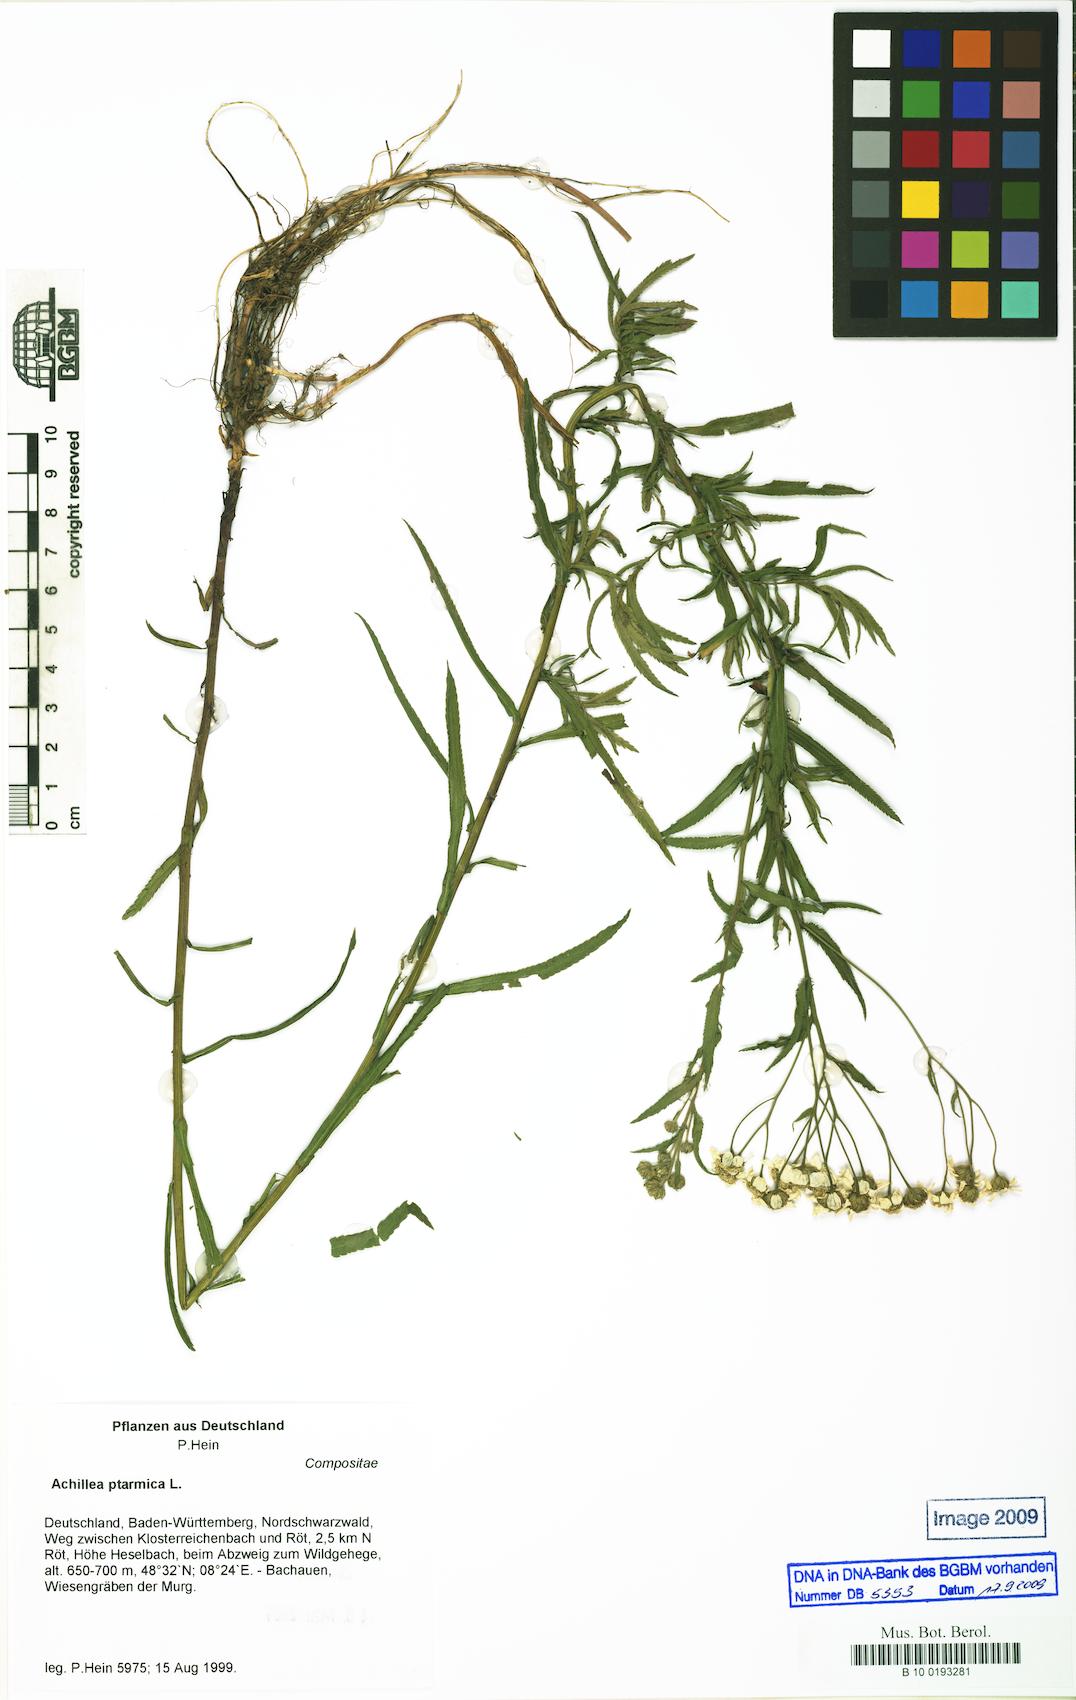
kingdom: Plantae
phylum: Tracheophyta
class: Magnoliopsida
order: Asterales
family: Asteraceae
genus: Achillea
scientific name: Achillea ptarmica
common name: Sneezeweed
